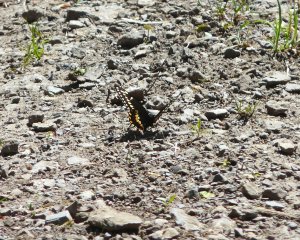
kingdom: Animalia
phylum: Arthropoda
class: Insecta
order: Lepidoptera
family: Papilionidae
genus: Papilio
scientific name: Papilio polyxenes
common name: Black Swallowtail
